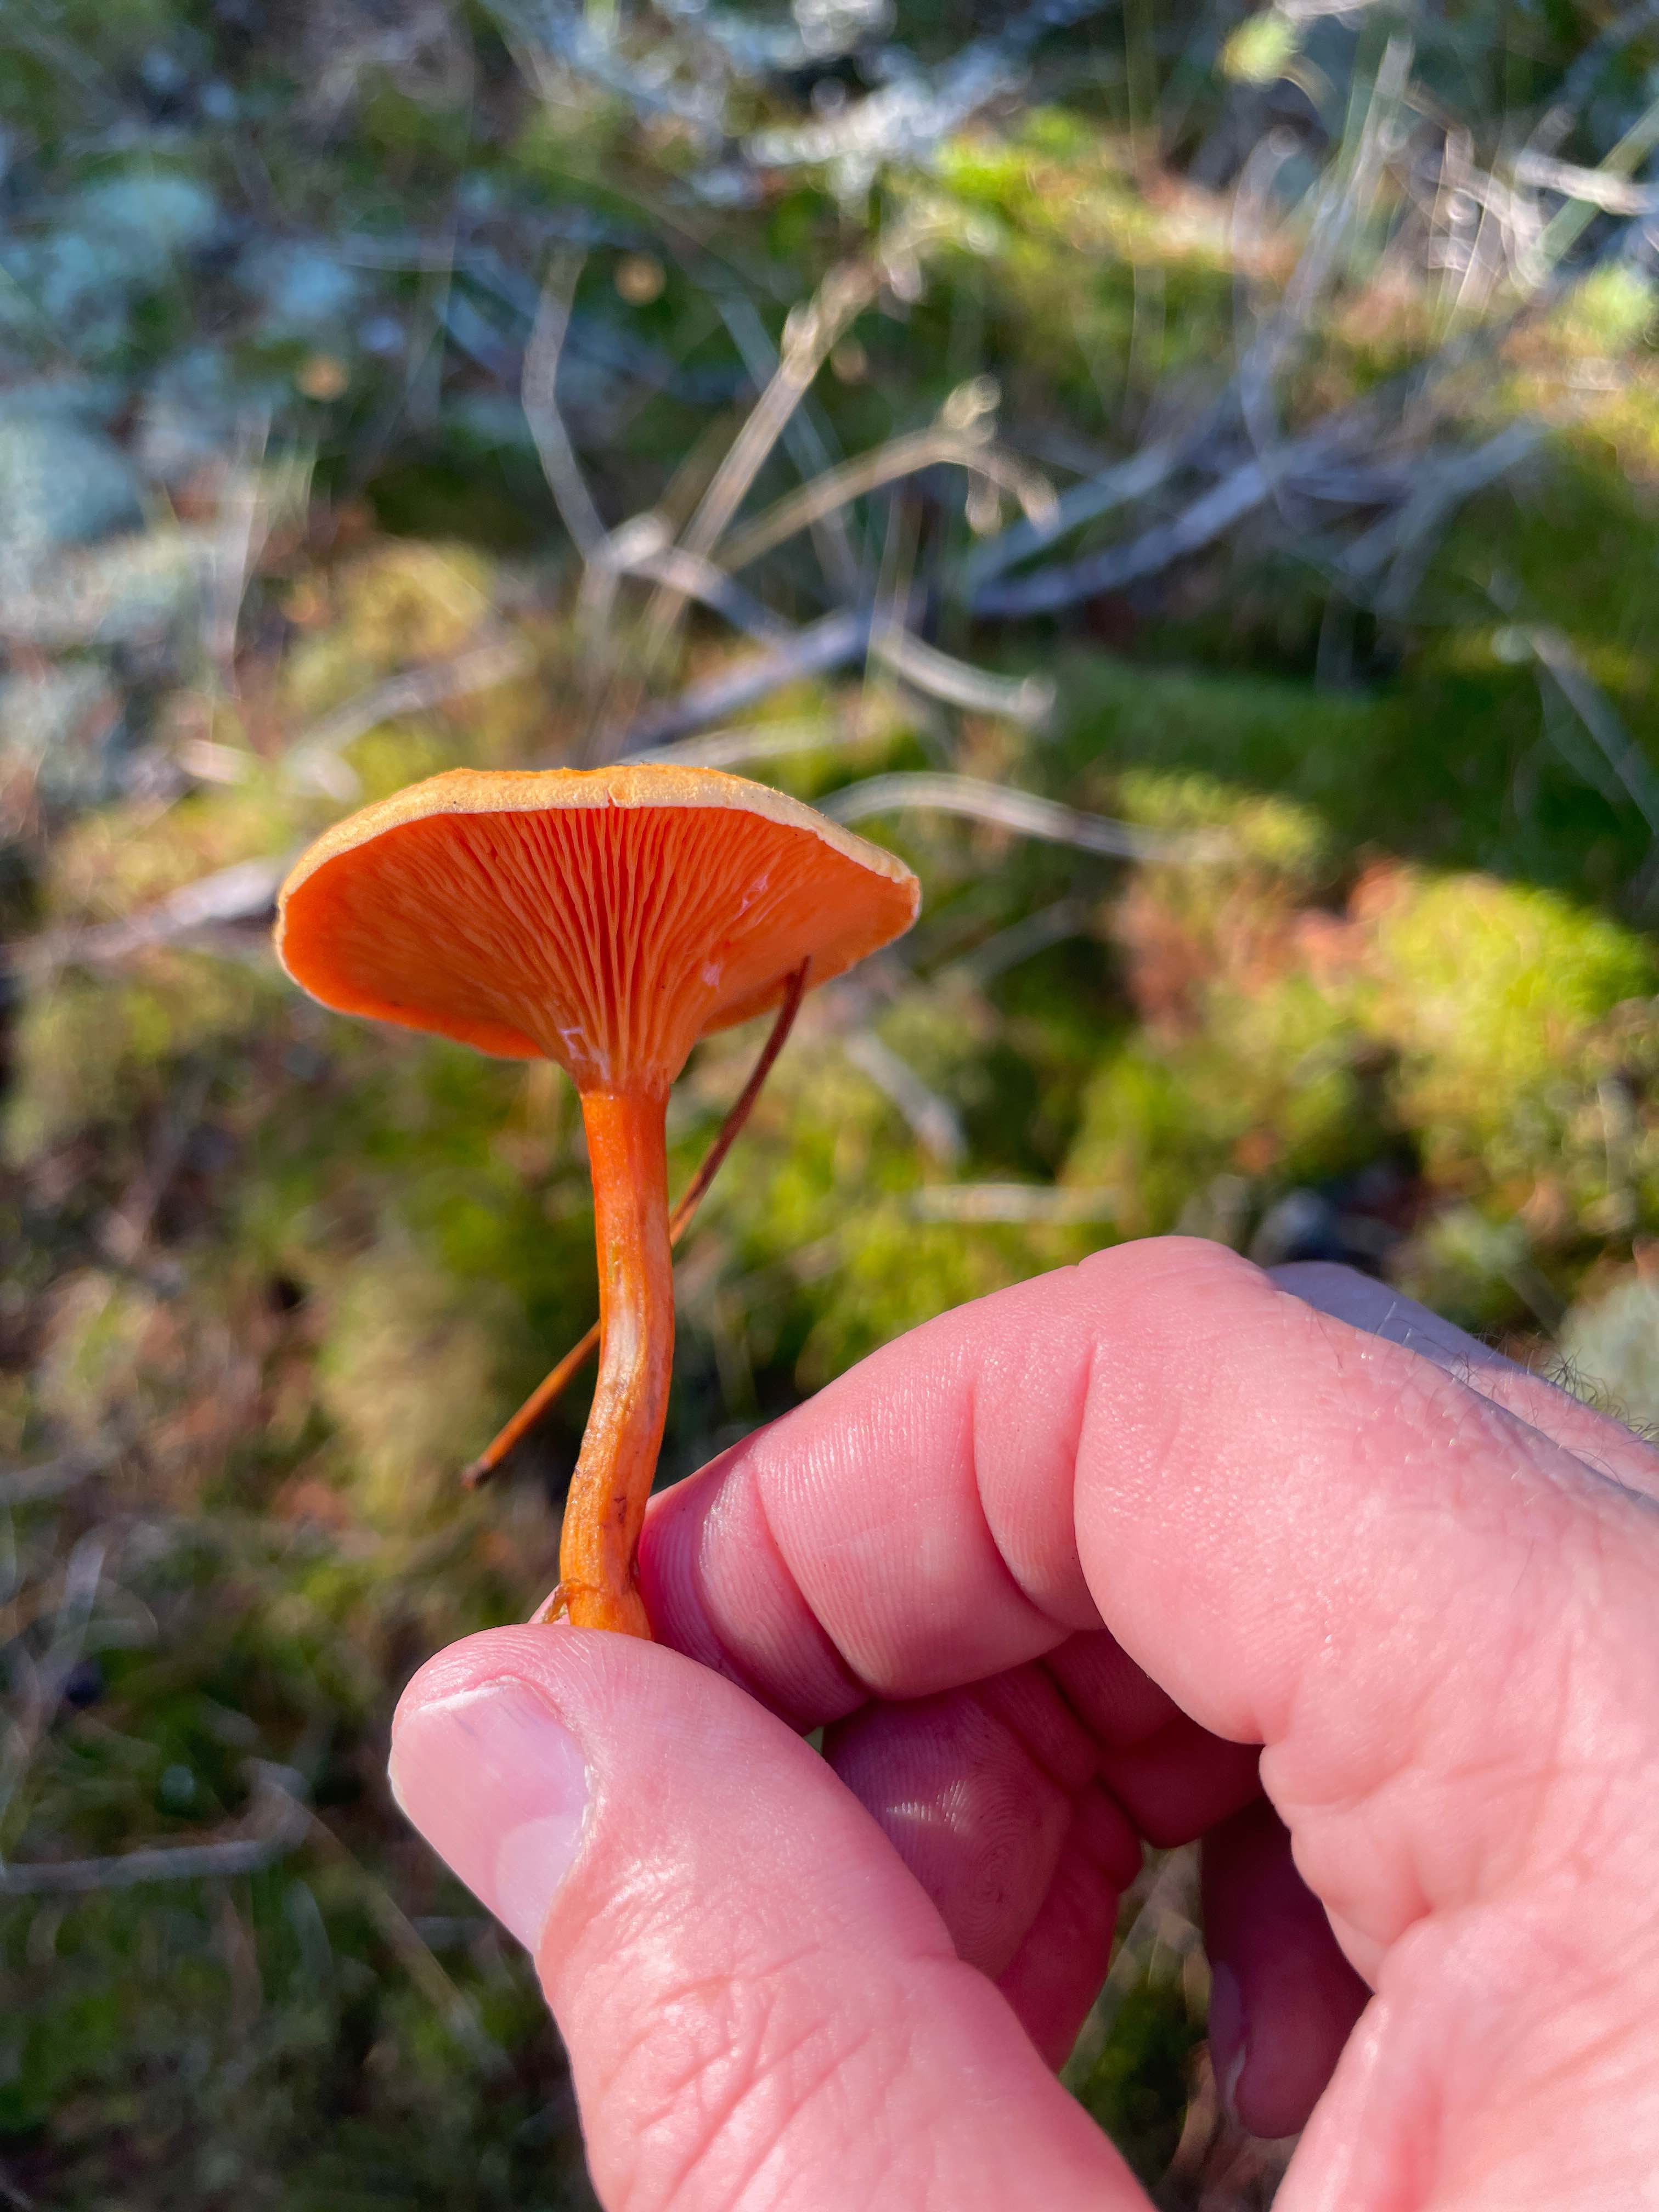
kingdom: Fungi
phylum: Basidiomycota
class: Agaricomycetes
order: Boletales
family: Hygrophoropsidaceae
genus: Hygrophoropsis
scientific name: Hygrophoropsis aurantiaca
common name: almindelig orangekantarel
